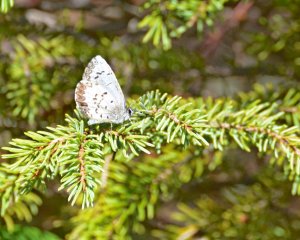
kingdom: Animalia
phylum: Arthropoda
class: Insecta
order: Lepidoptera
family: Lycaenidae
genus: Celastrina
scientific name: Celastrina lucia
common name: Northern Spring Azure
